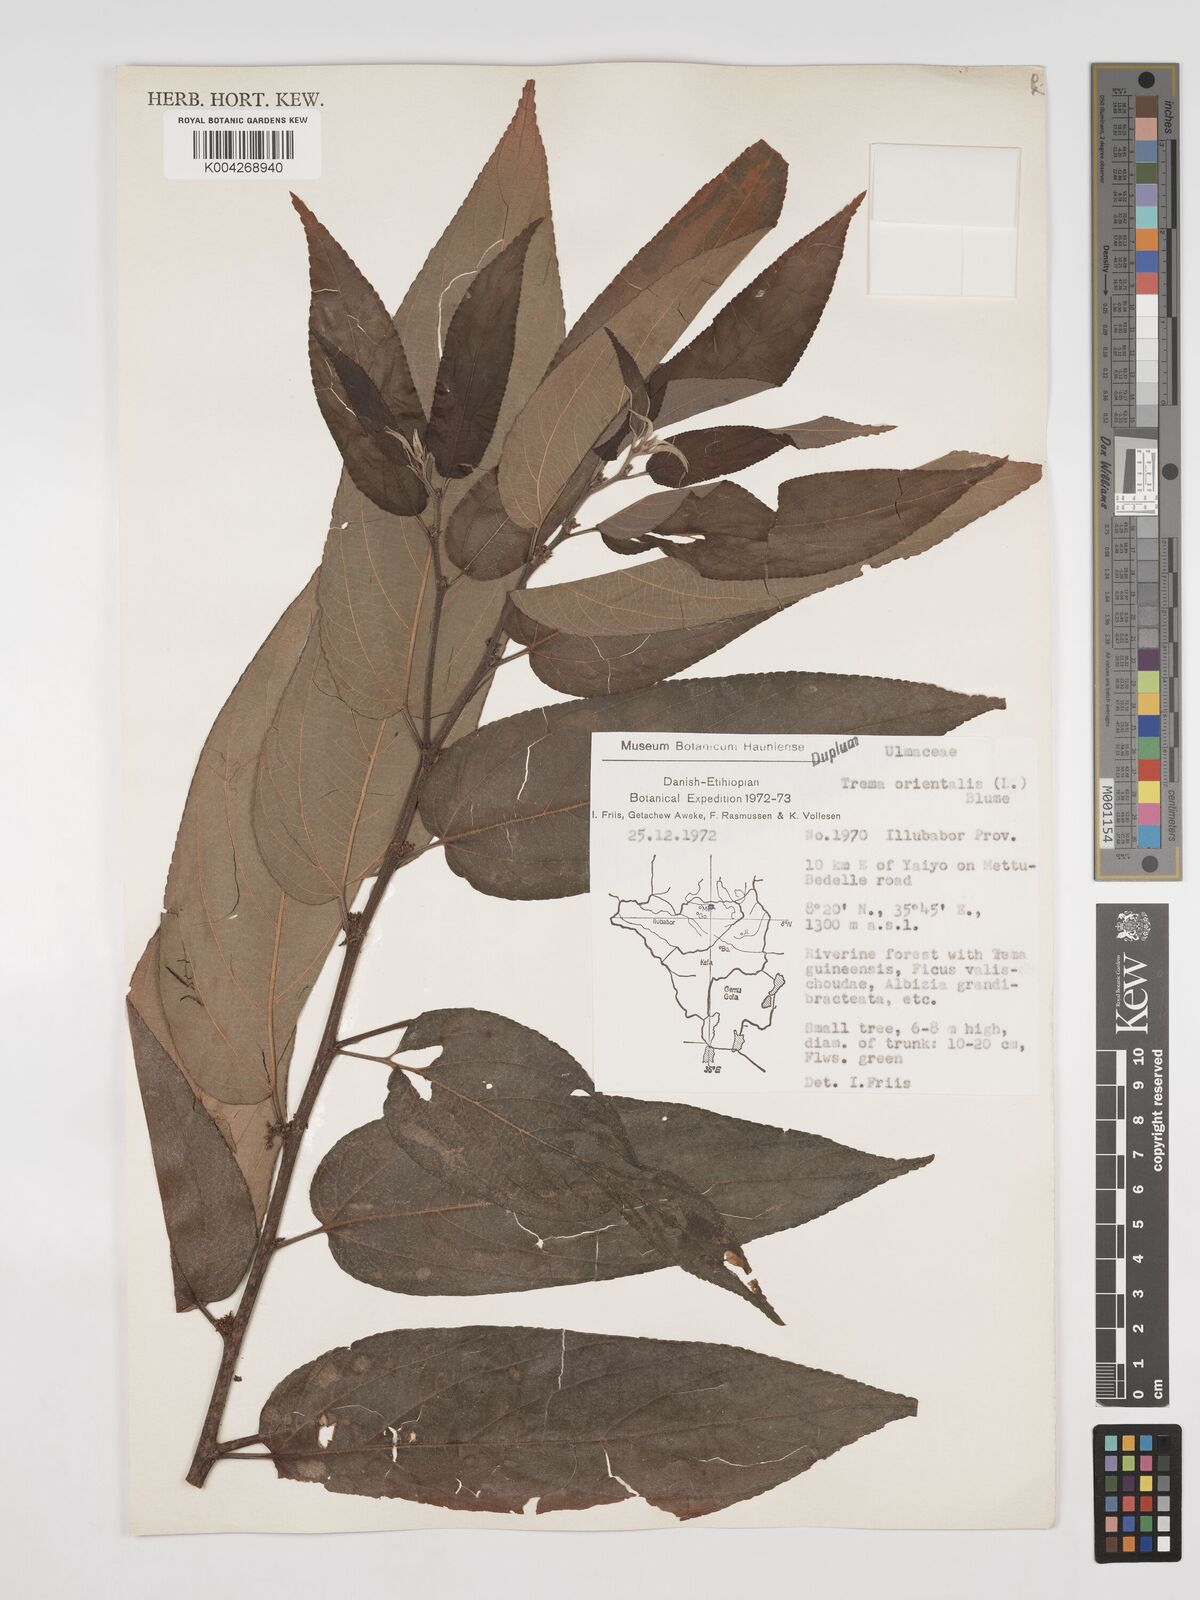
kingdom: Plantae
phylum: Tracheophyta
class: Magnoliopsida
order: Rosales
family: Cannabaceae
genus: Trema
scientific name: Trema orientale
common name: Indian charcoal tree
